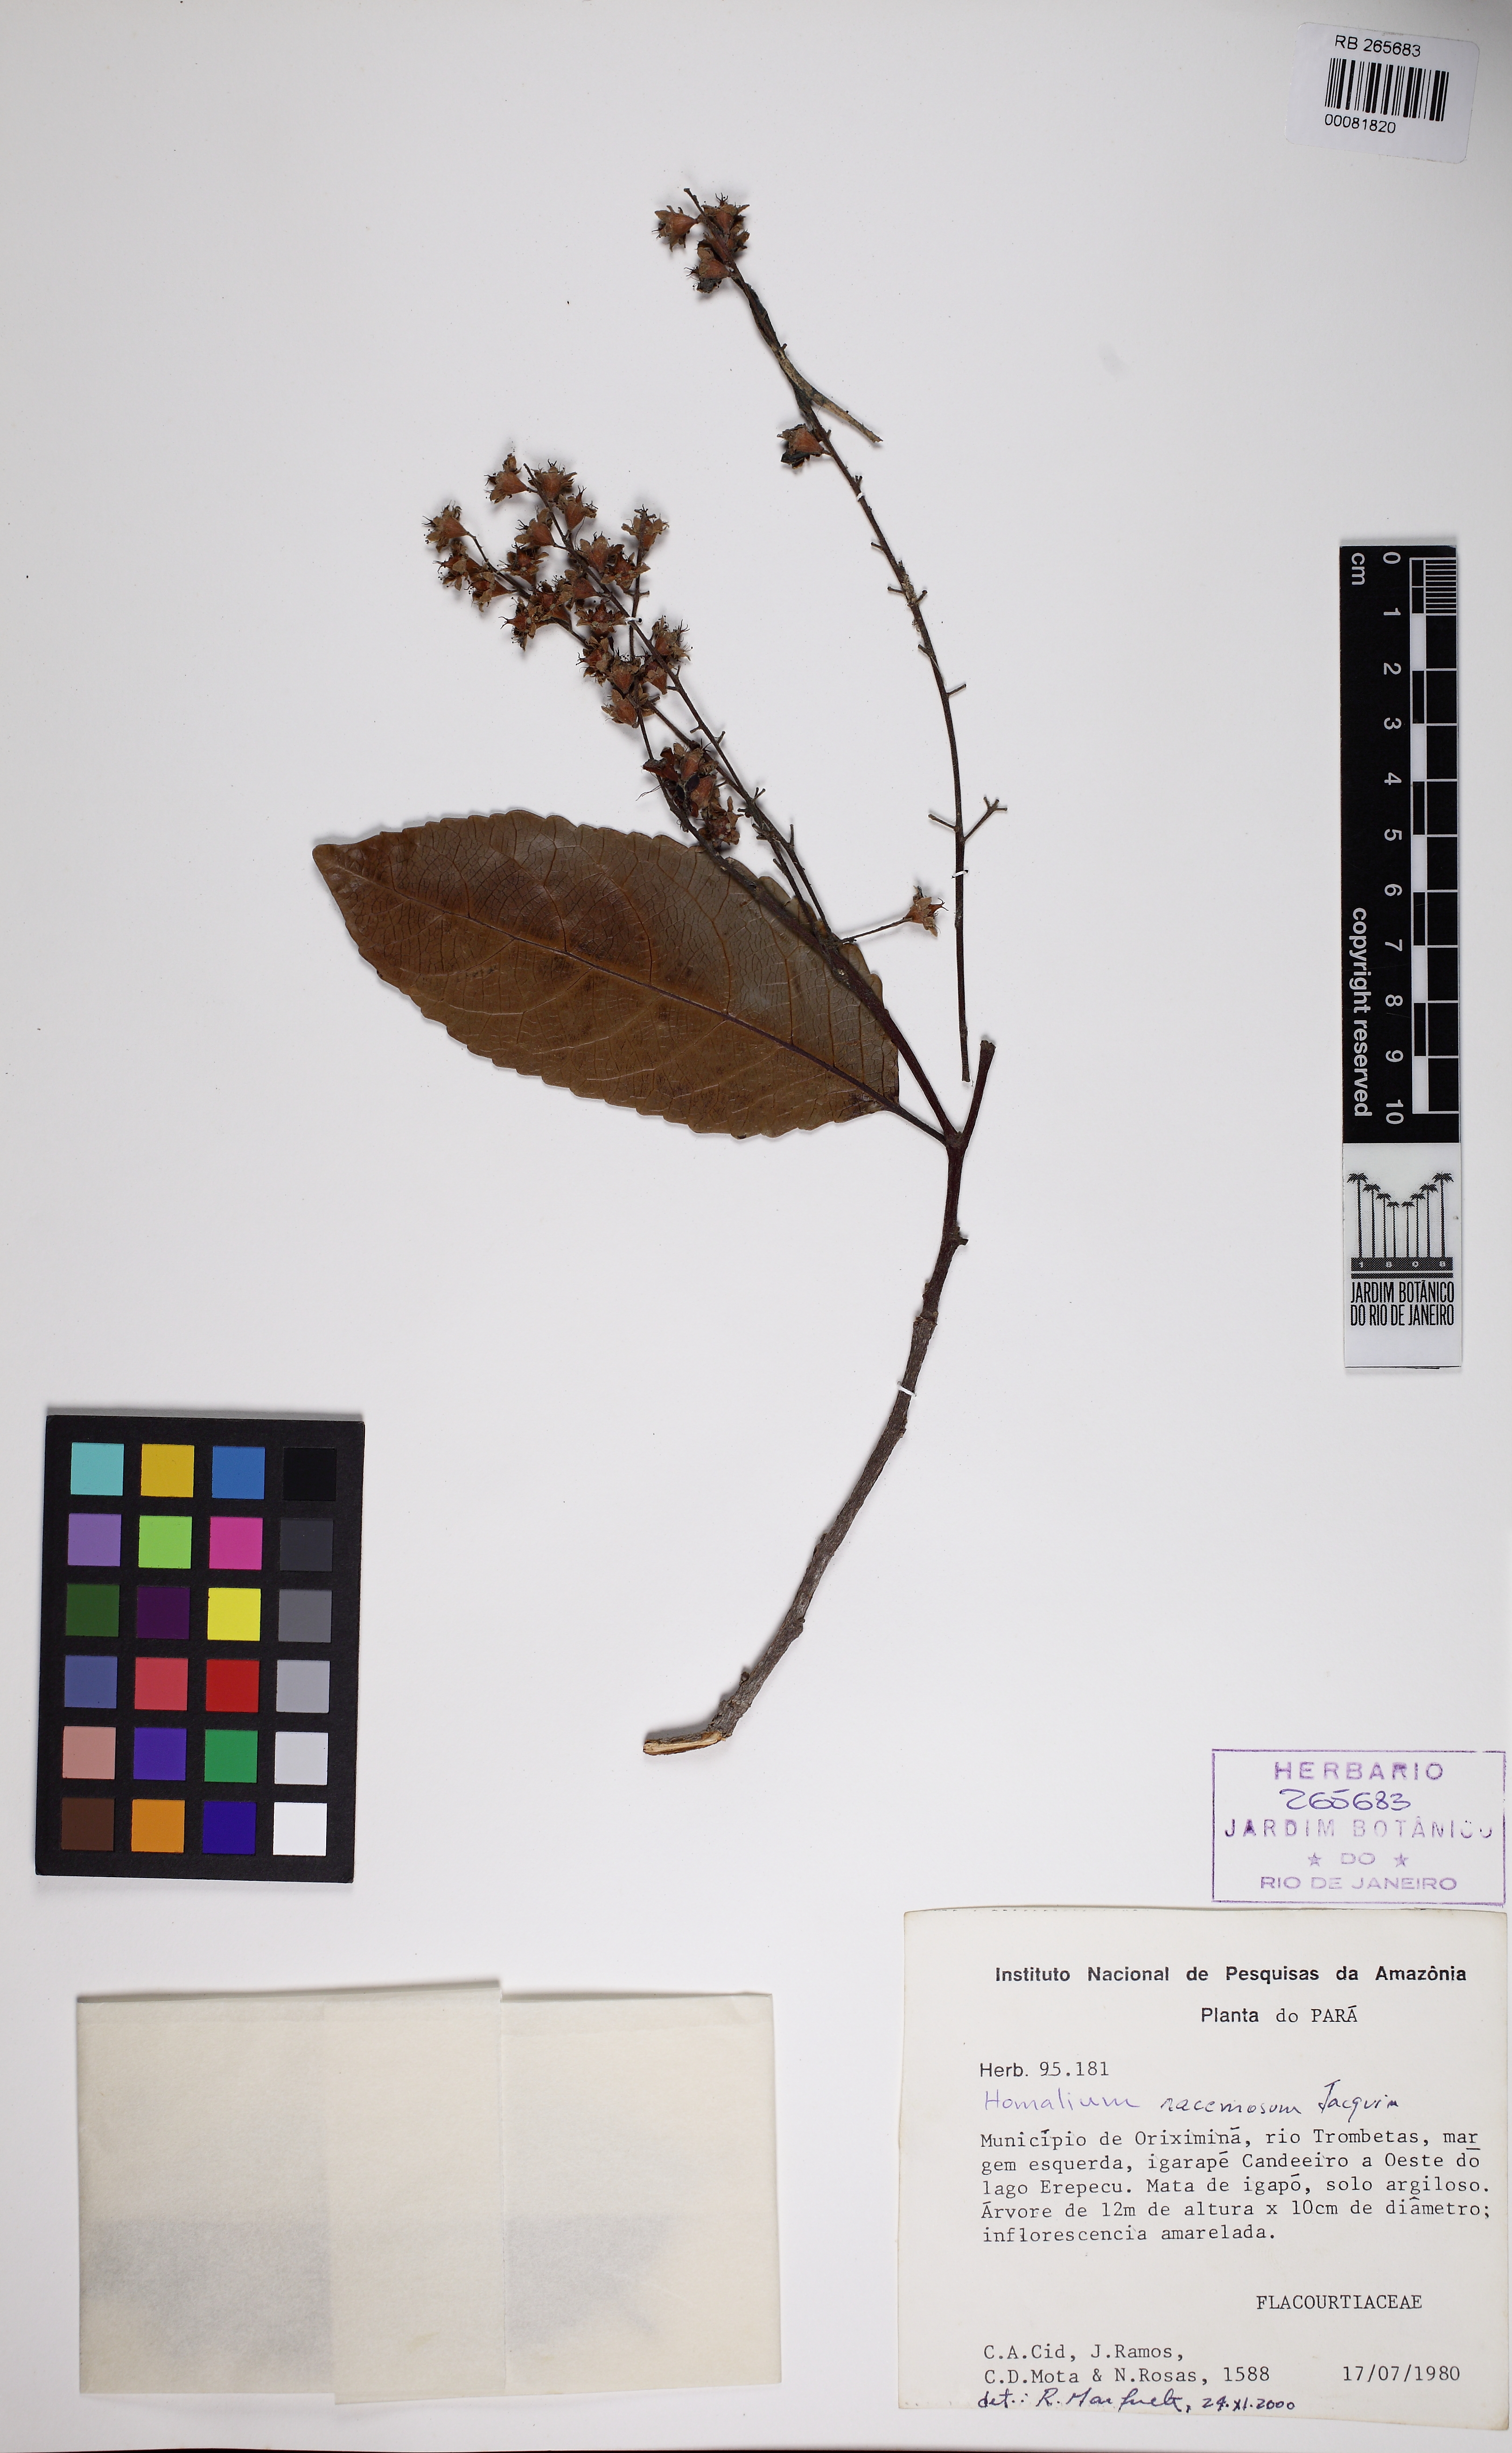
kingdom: Plantae
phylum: Tracheophyta
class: Magnoliopsida
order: Malpighiales
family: Salicaceae
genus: Homalium
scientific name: Homalium
